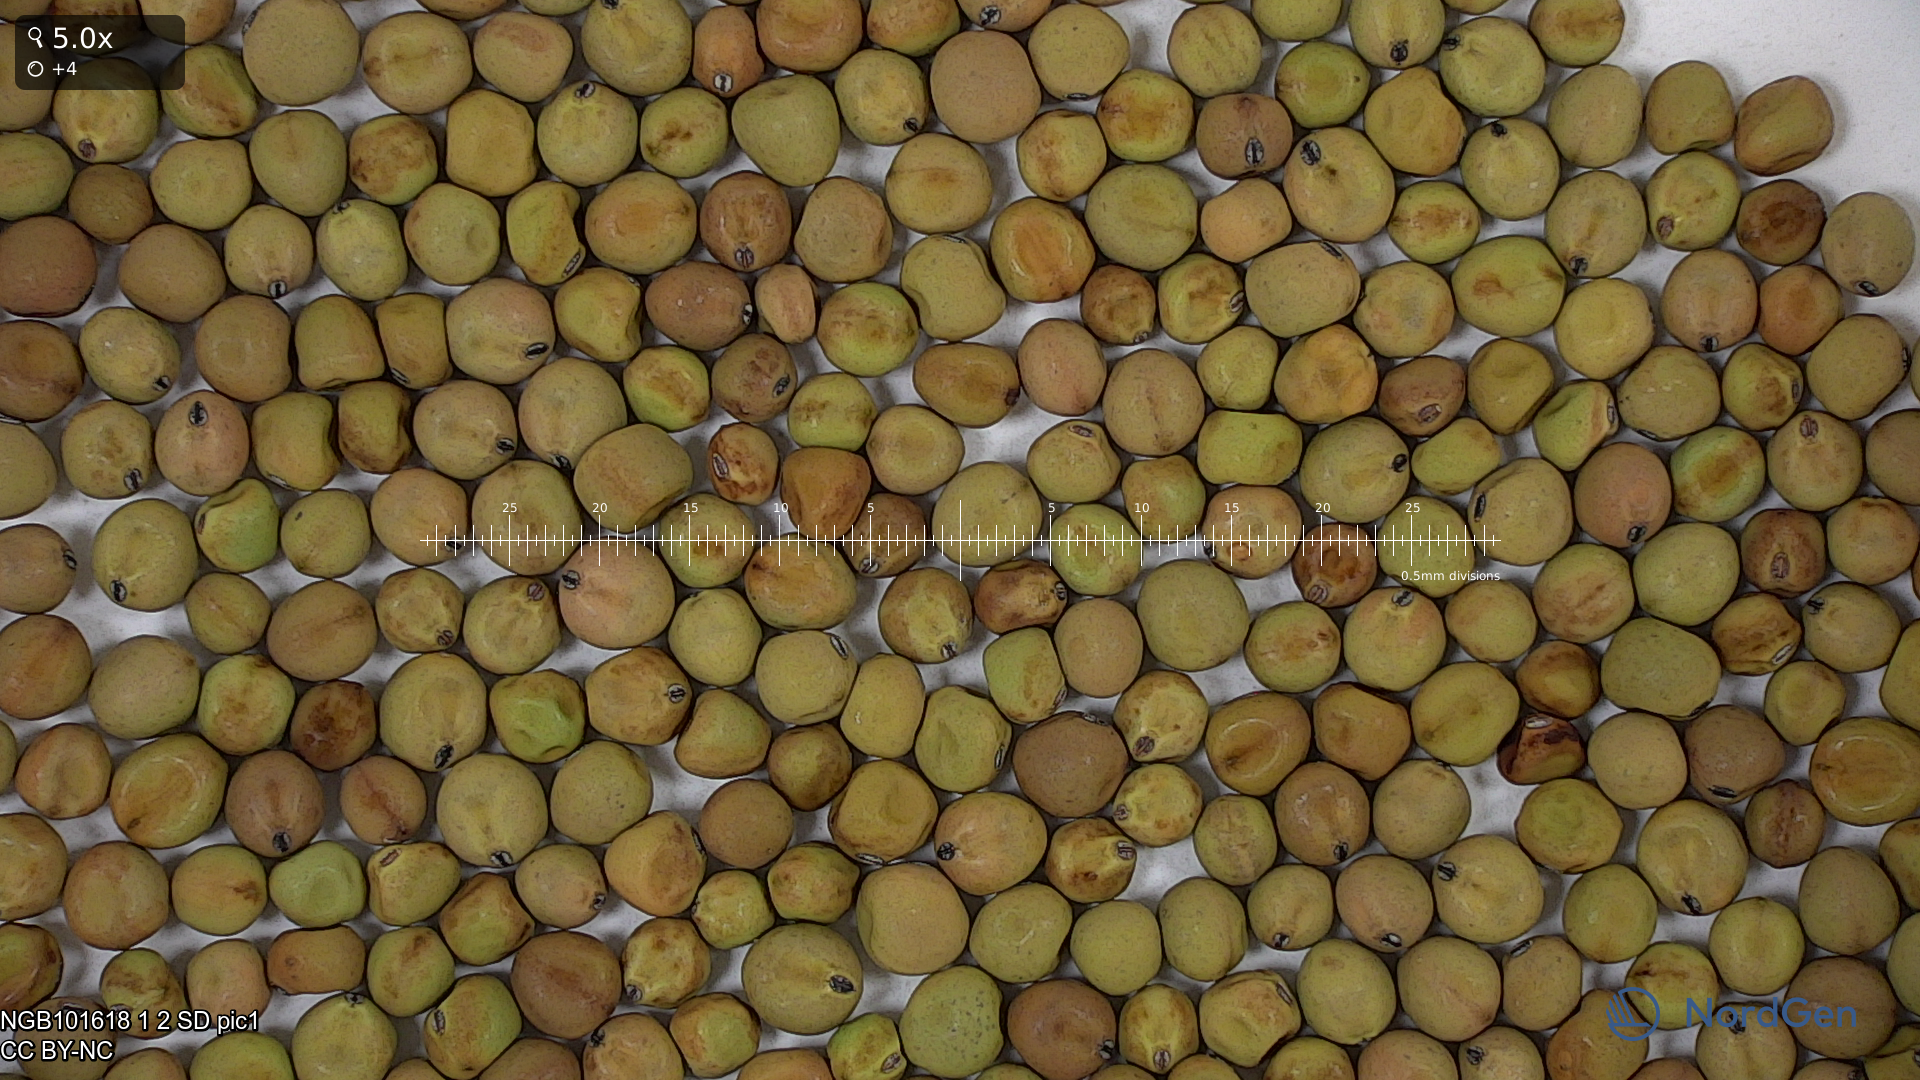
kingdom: Plantae
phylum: Tracheophyta
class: Magnoliopsida
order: Fabales
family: Fabaceae
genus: Lathyrus
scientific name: Lathyrus oleraceus
